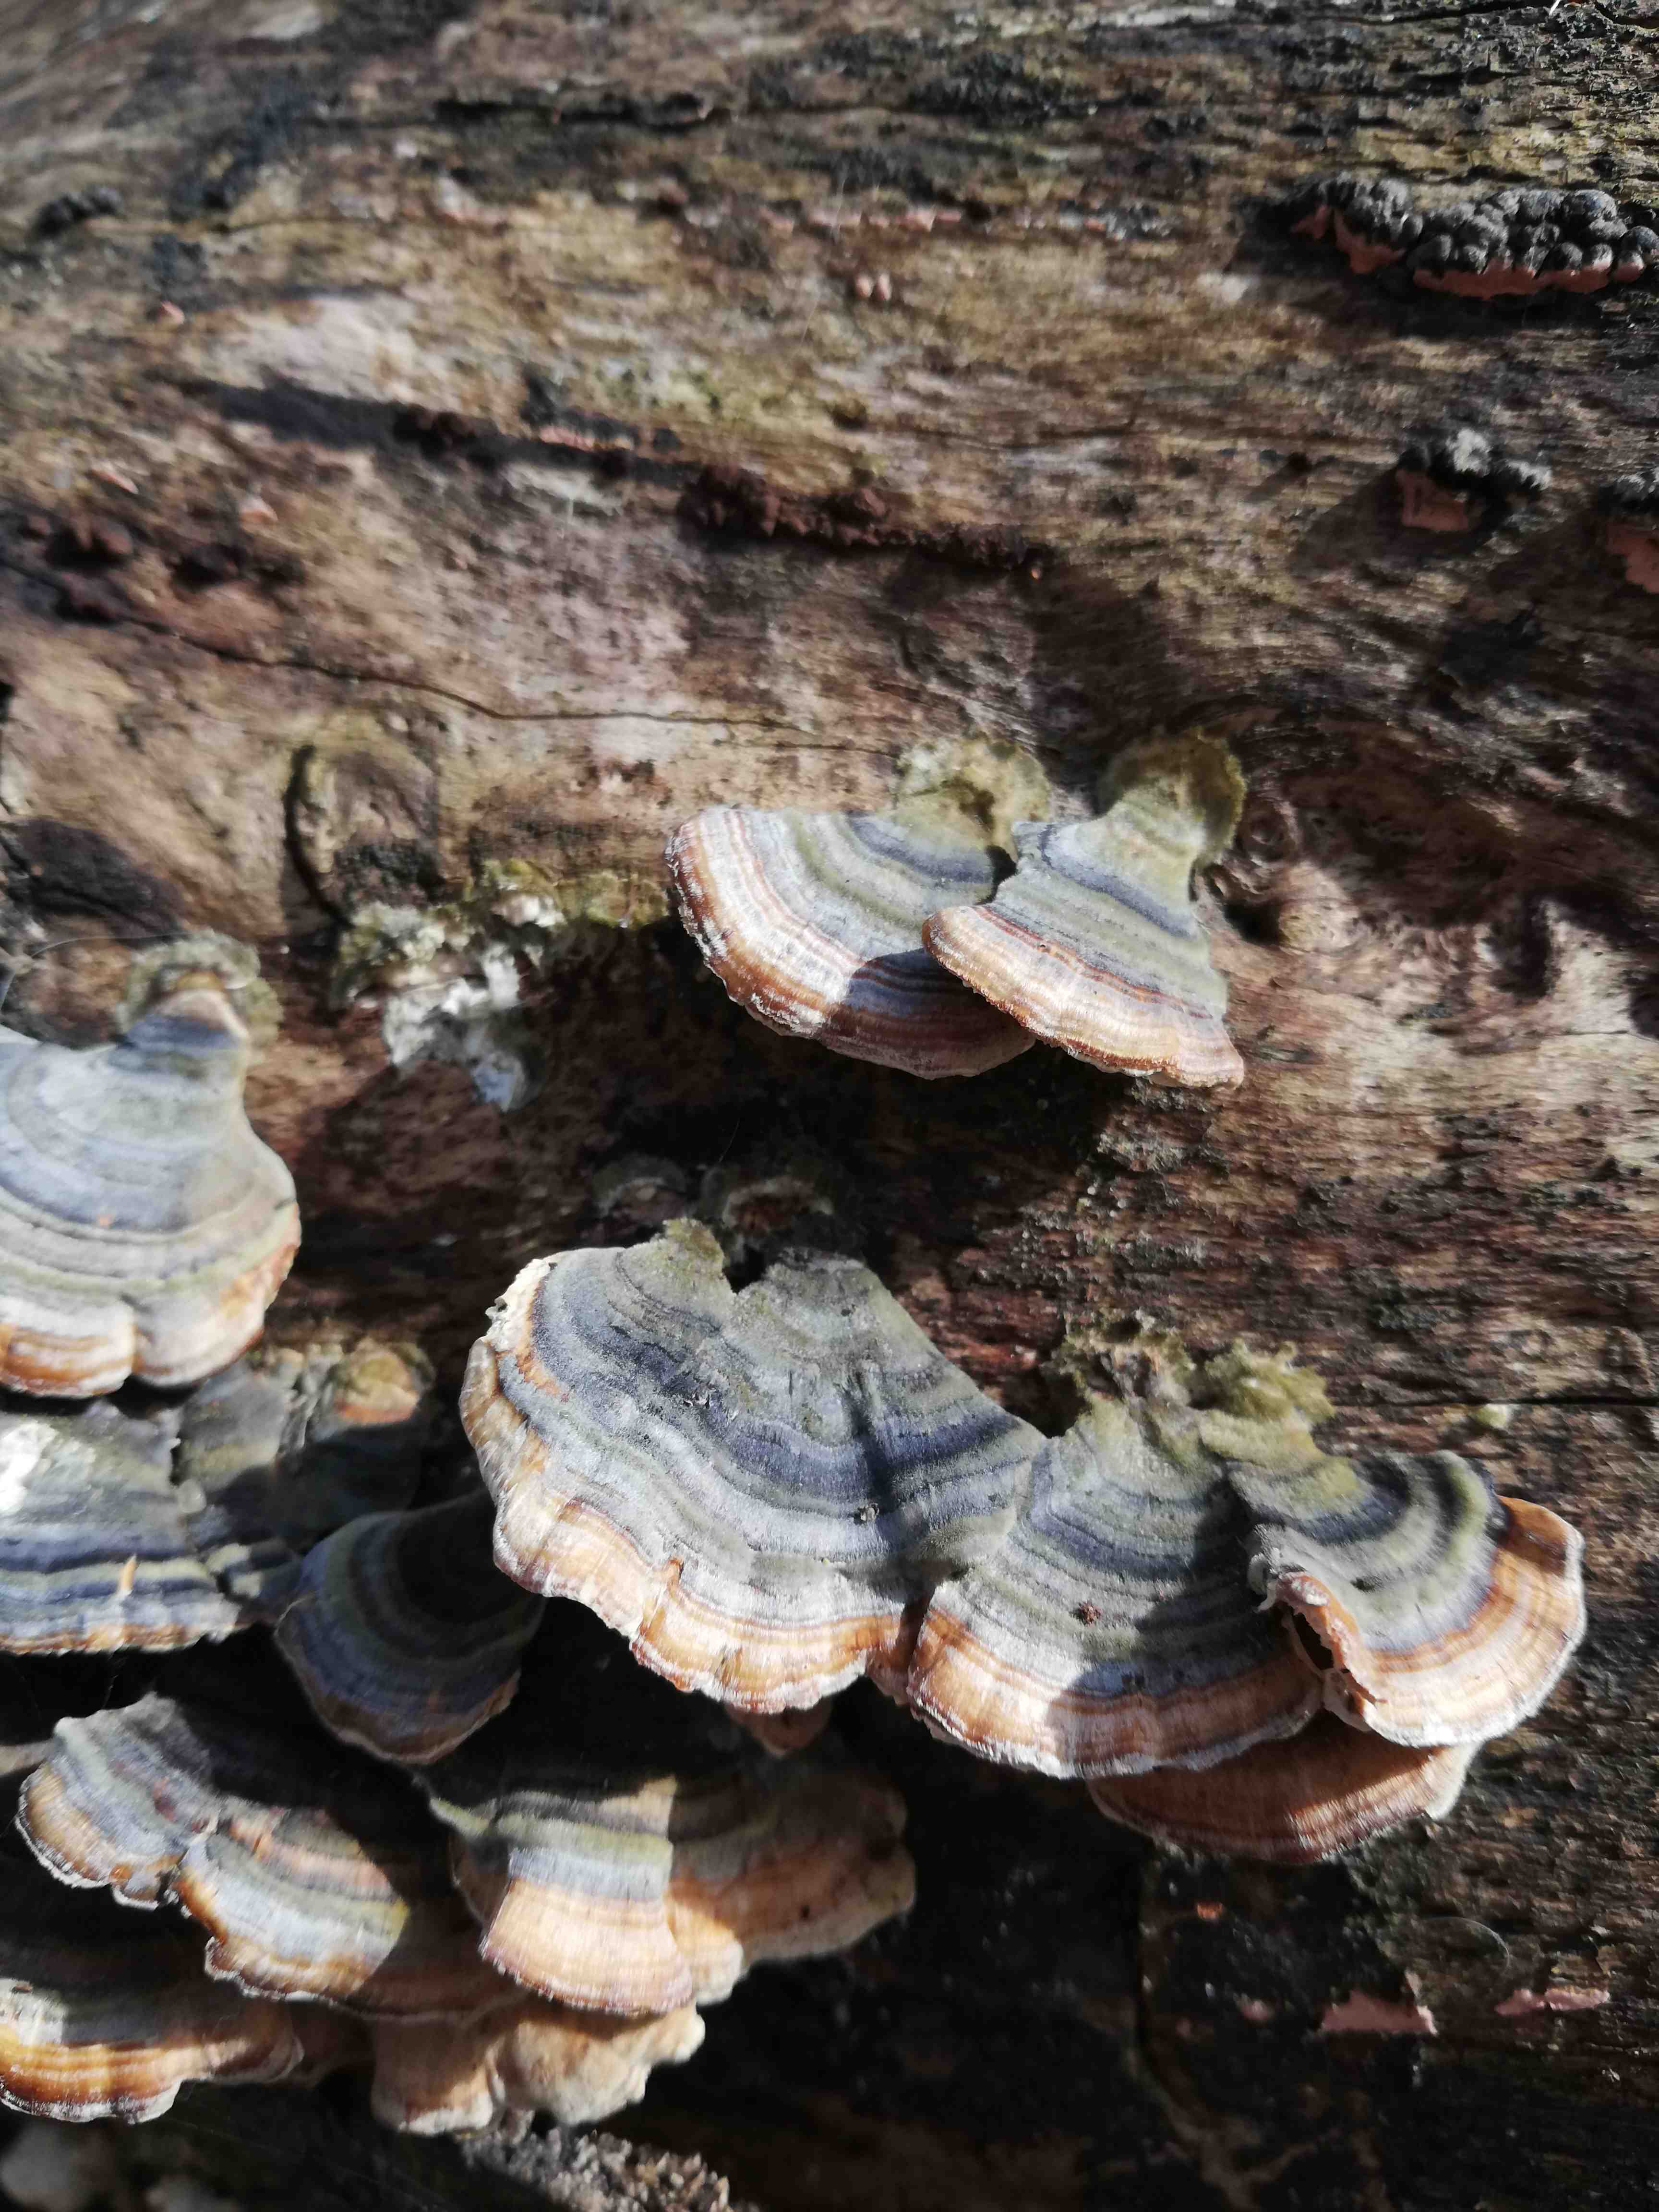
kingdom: Fungi
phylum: Basidiomycota
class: Agaricomycetes
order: Polyporales
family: Polyporaceae
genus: Trametes
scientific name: Trametes versicolor
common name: broget læderporesvamp
